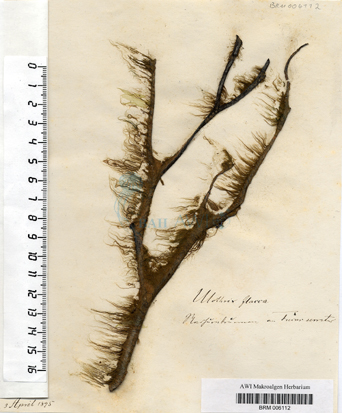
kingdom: Plantae
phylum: Chlorophyta
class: Ulvophyceae
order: Ulotrichales
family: Ulotrichaceae
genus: Ulothrix
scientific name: Ulothrix flacca
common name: Woolly hair
